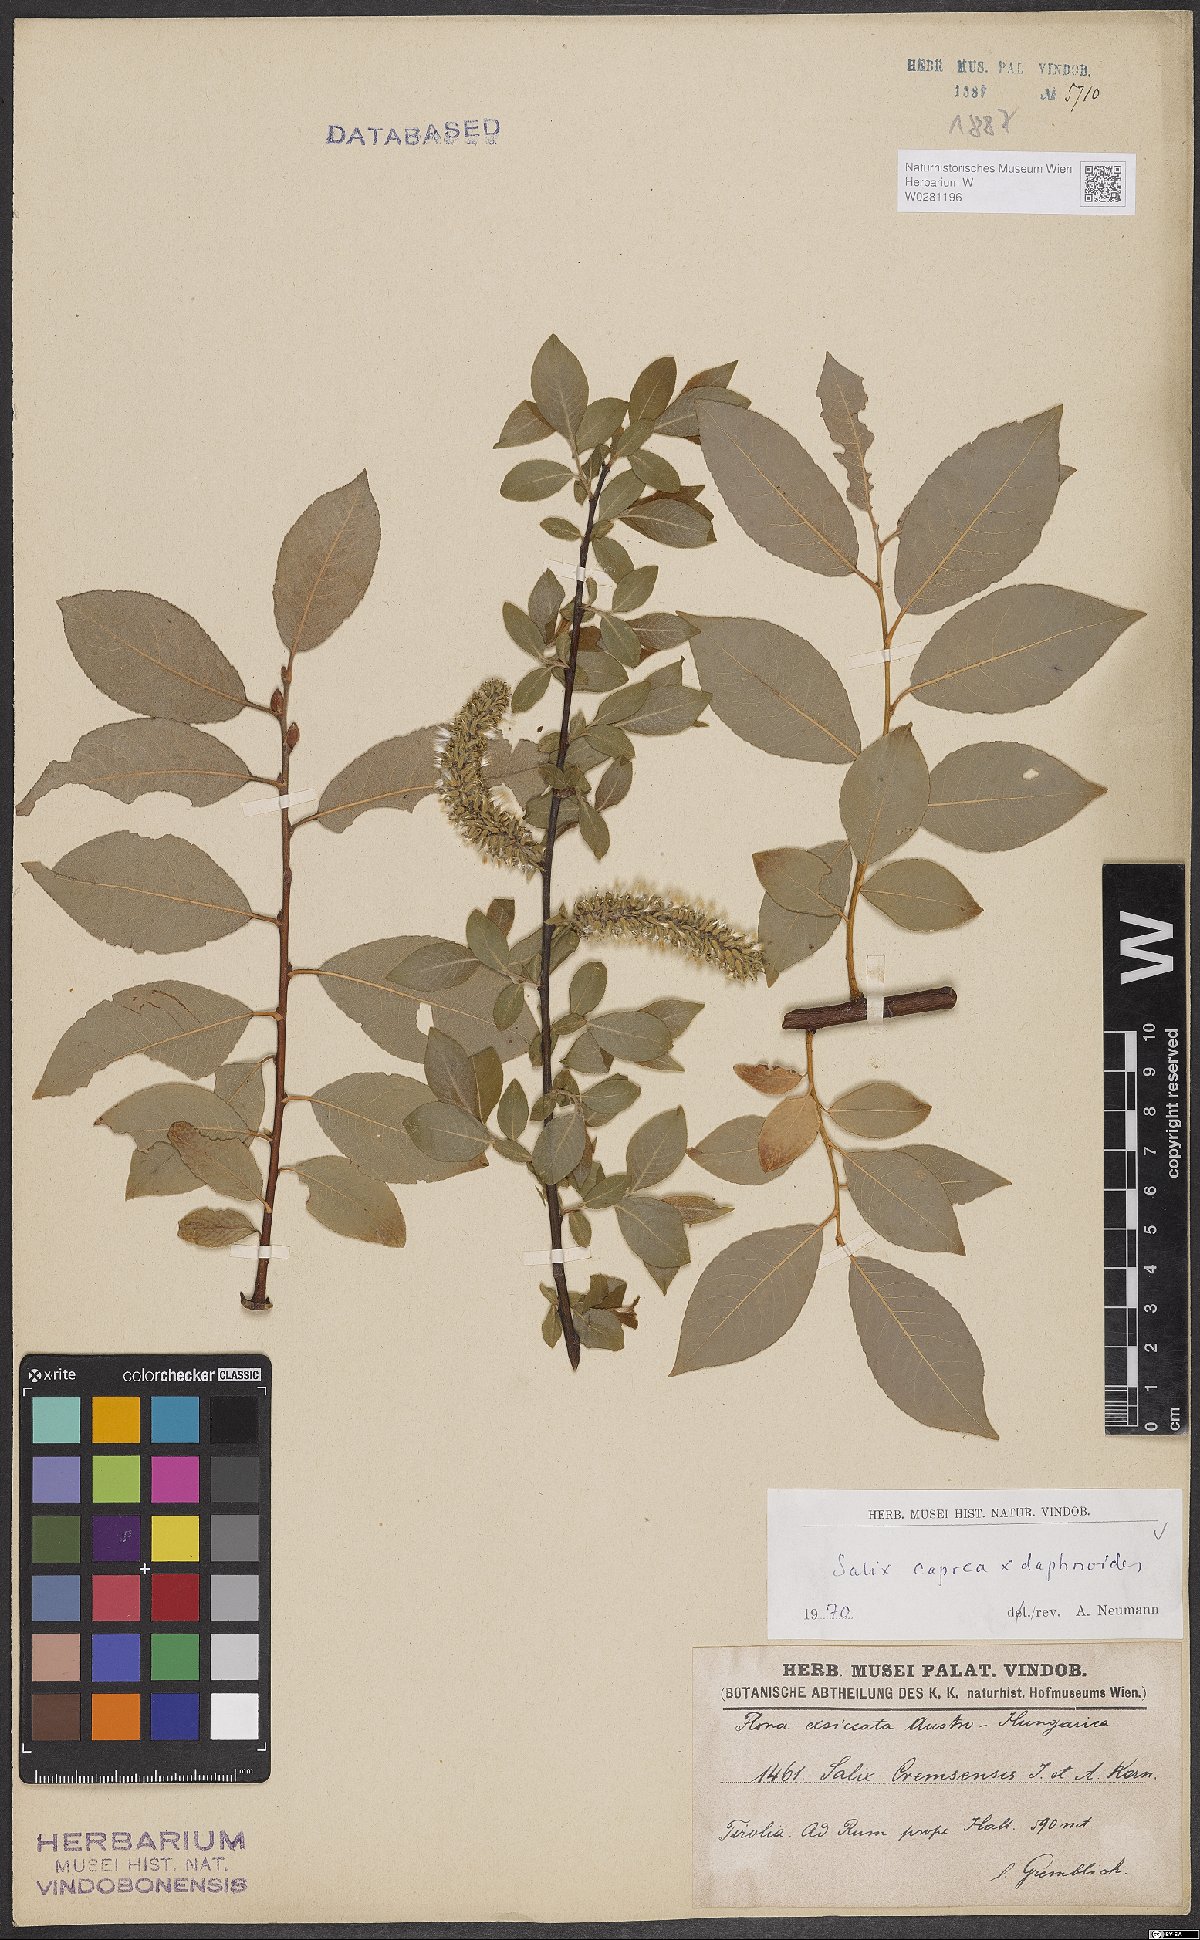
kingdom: Plantae
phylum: Tracheophyta
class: Magnoliopsida
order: Malpighiales
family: Salicaceae
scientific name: Salicaceae
